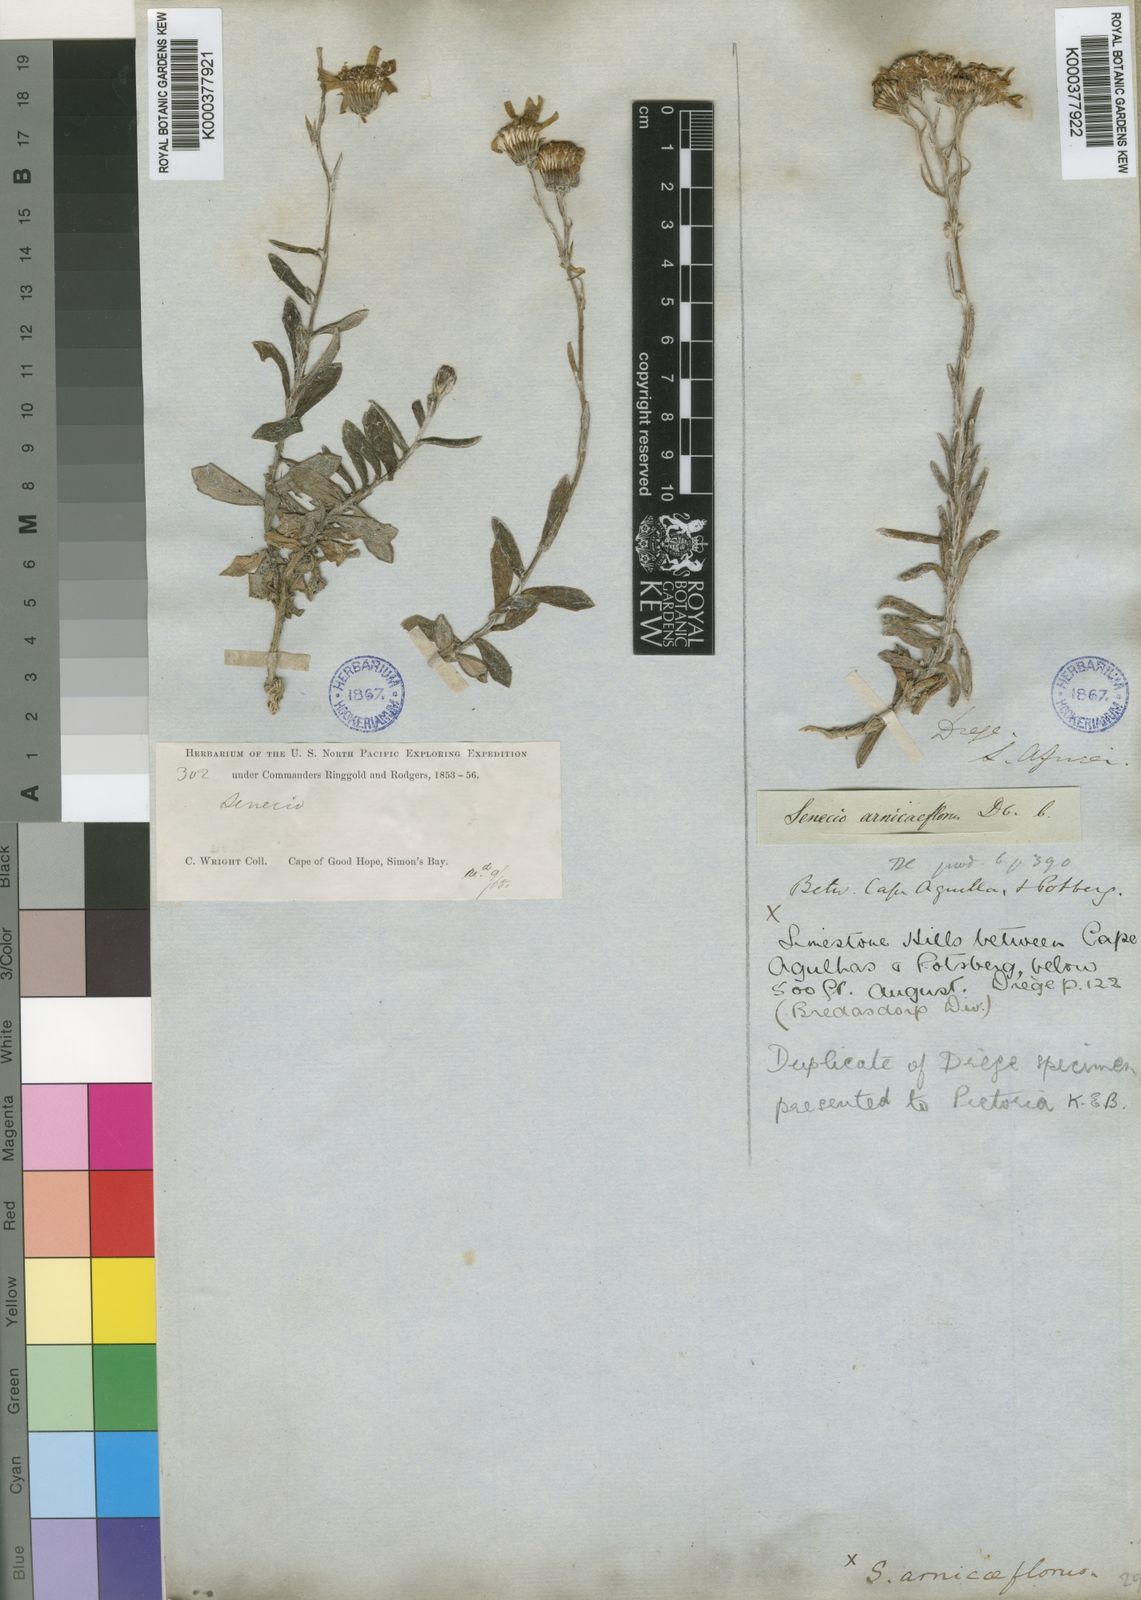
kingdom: Plantae
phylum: Tracheophyta
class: Magnoliopsida
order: Asterales
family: Asteraceae
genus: Senecio
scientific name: Senecio arniciflorus
